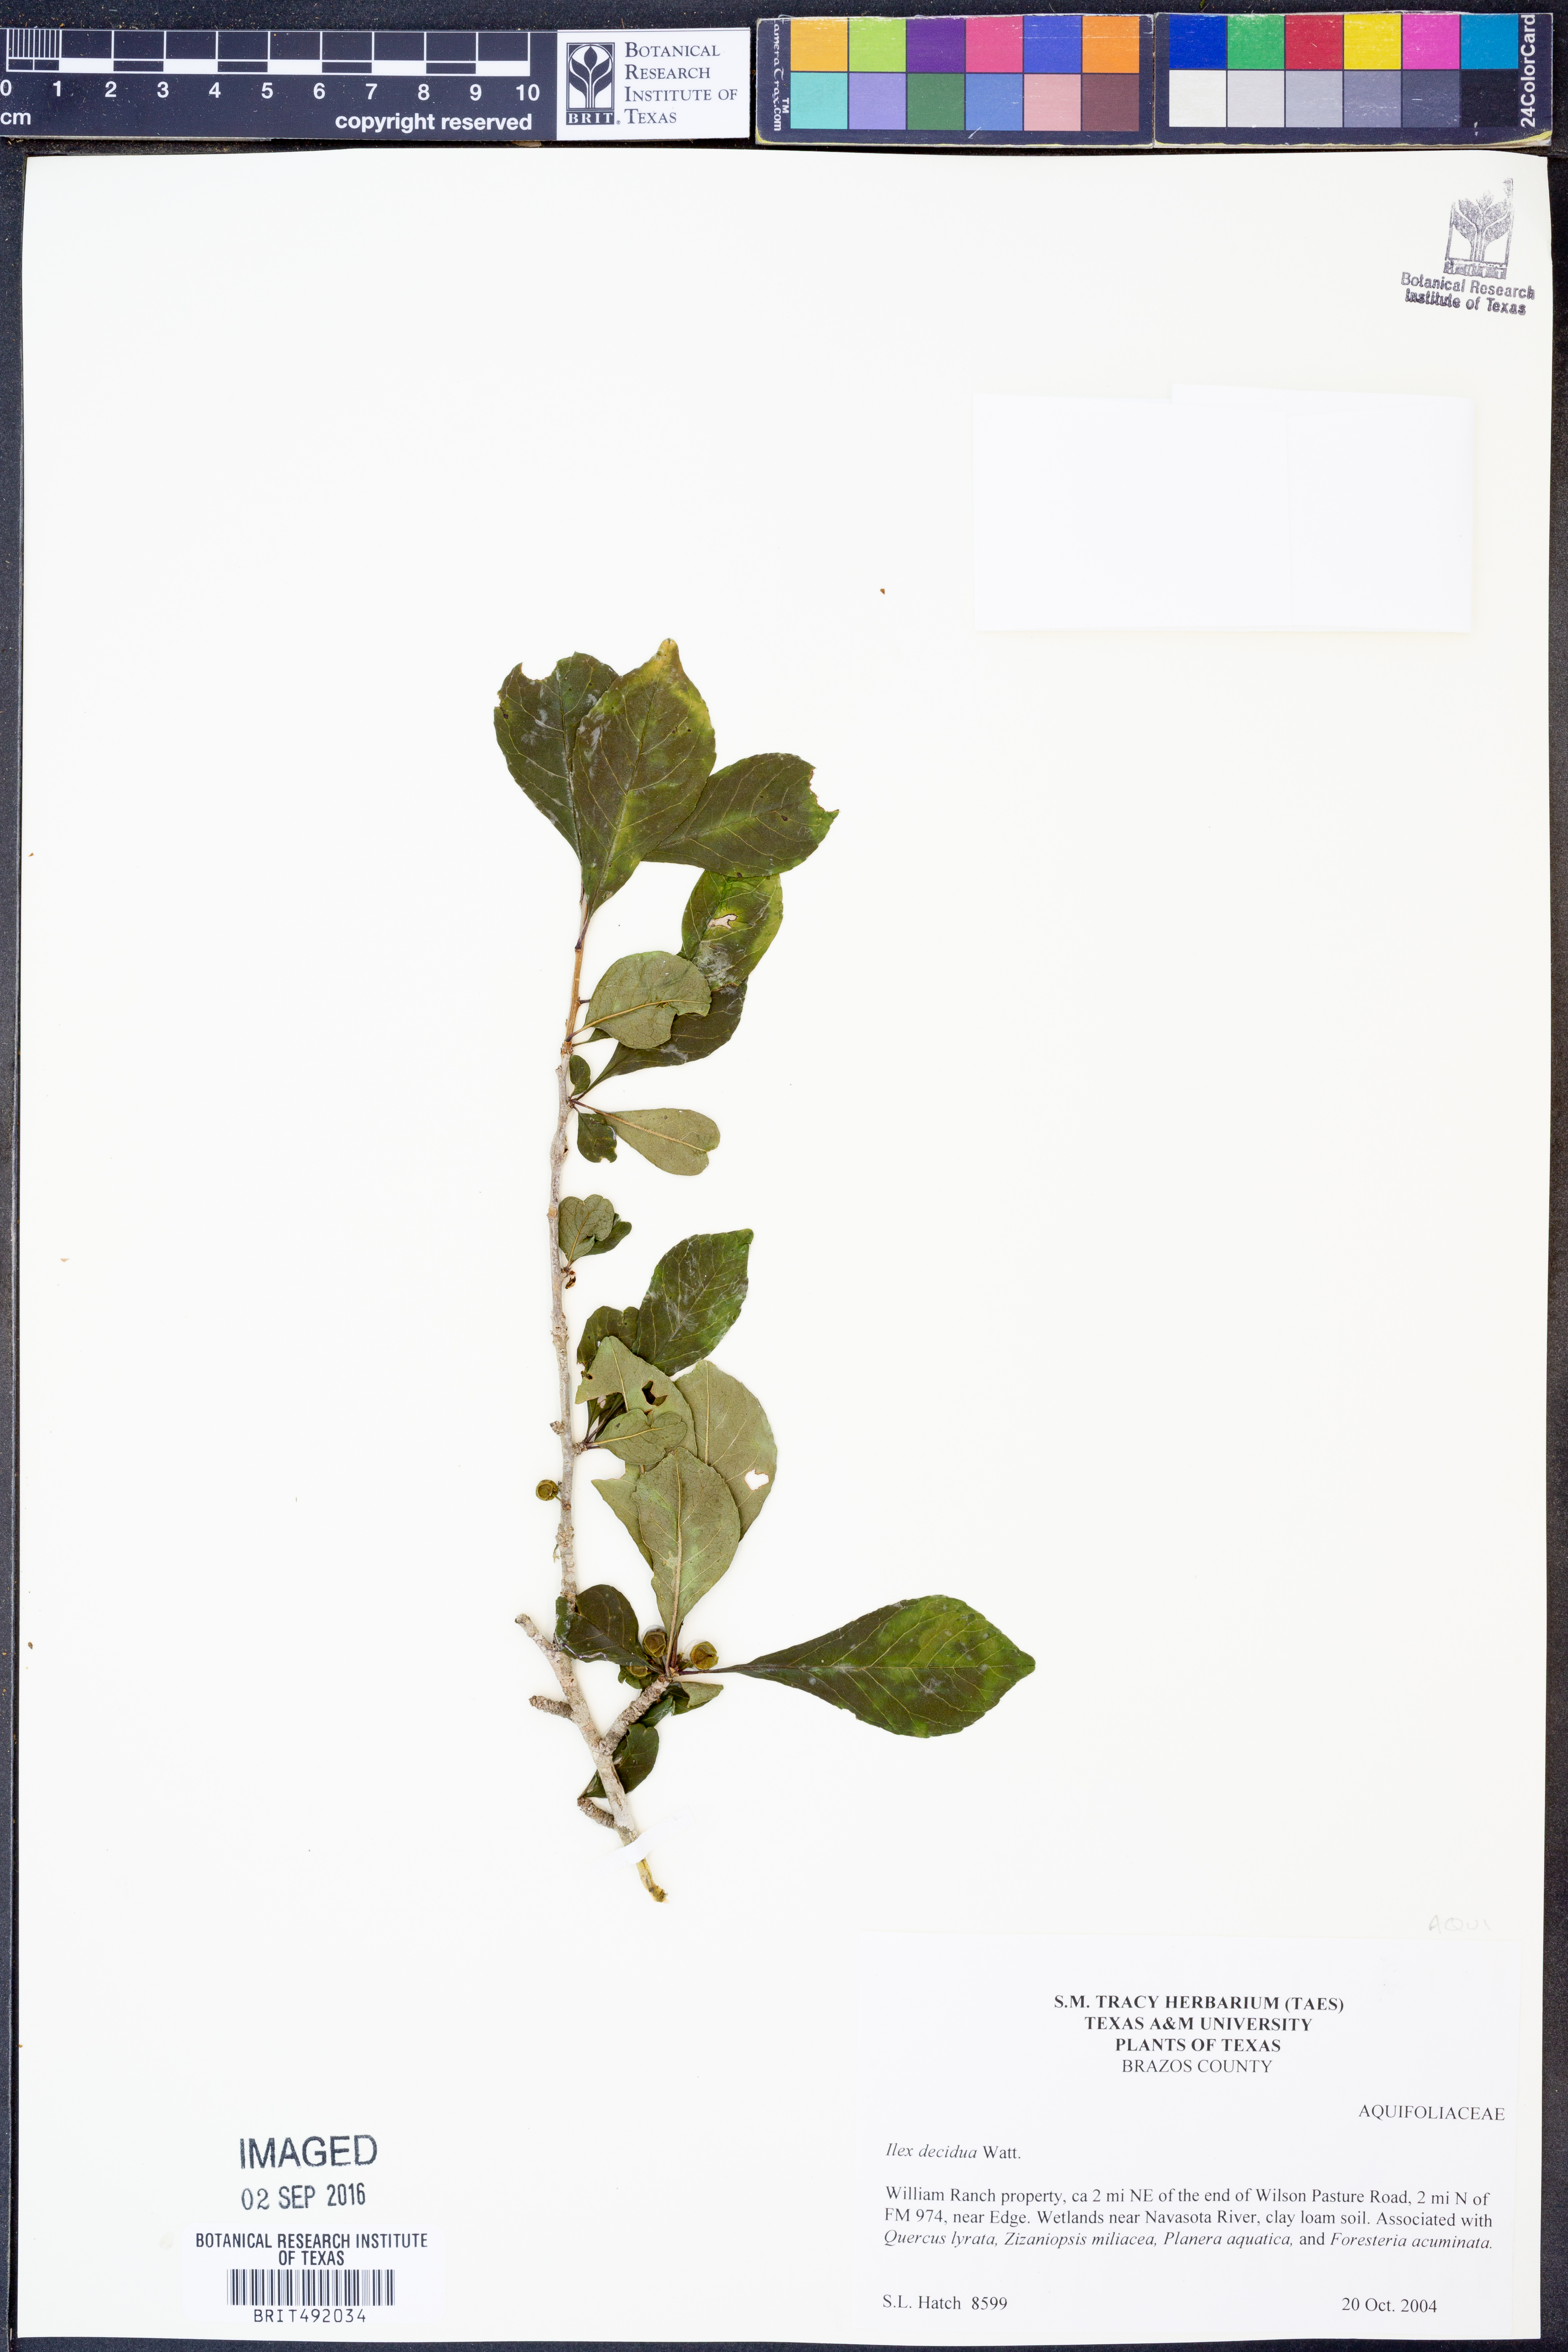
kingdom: Plantae
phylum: Tracheophyta
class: Magnoliopsida
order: Aquifoliales
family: Aquifoliaceae
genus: Ilex
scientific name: Ilex decidua
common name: Possum-haw
